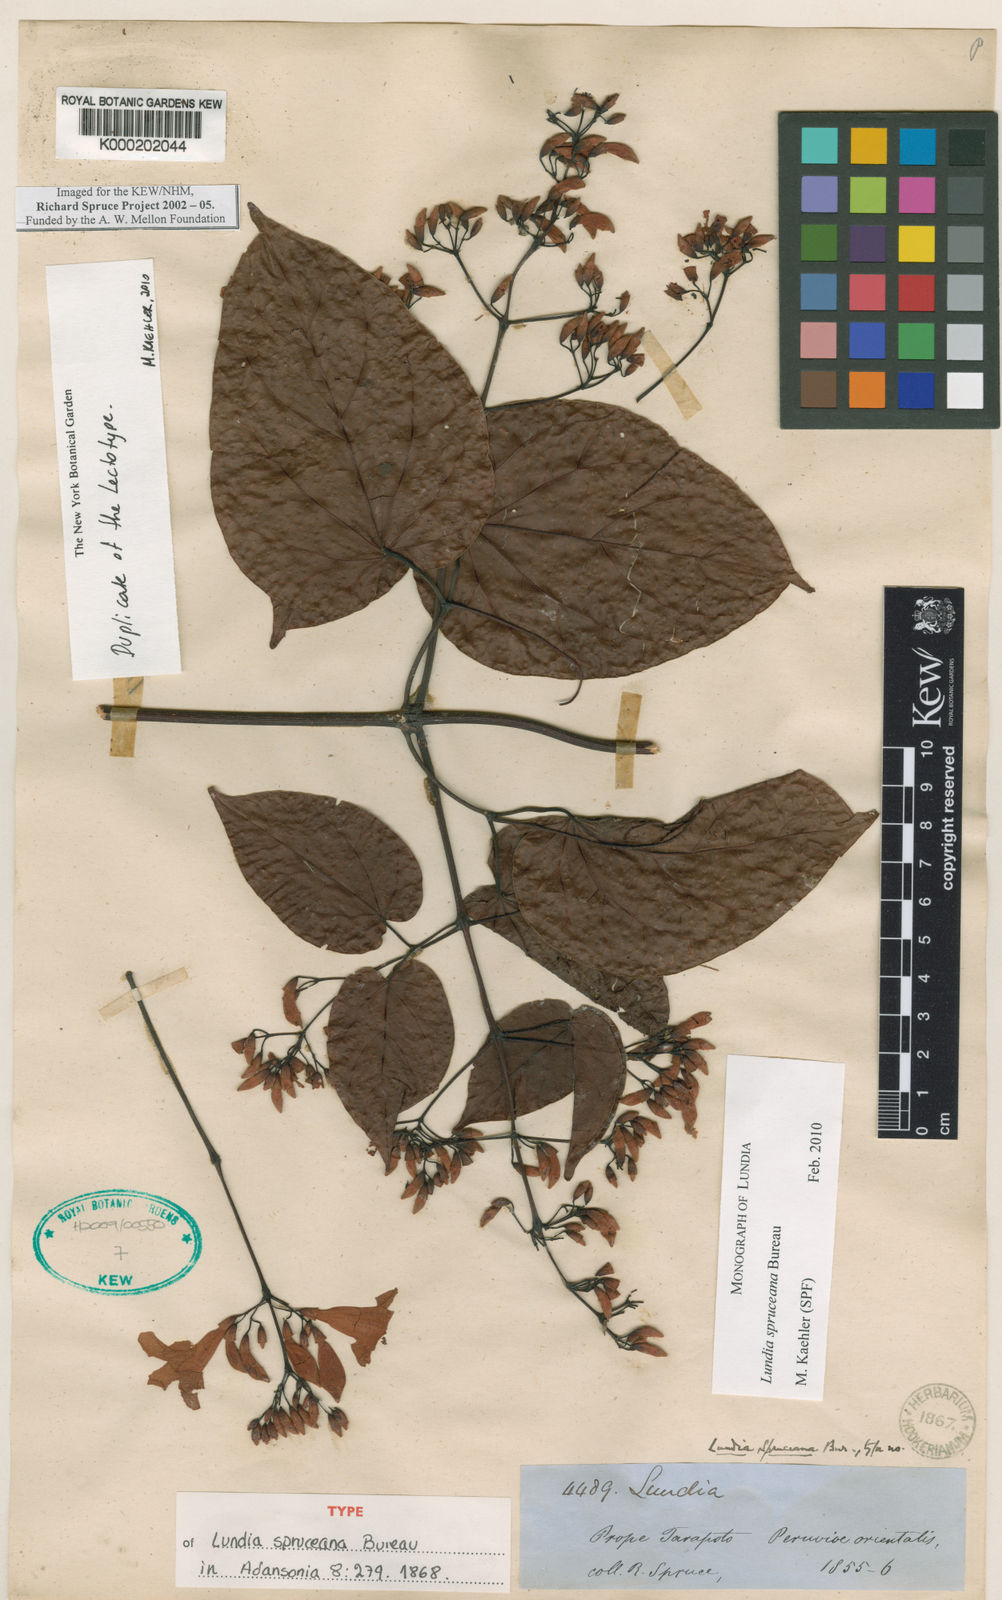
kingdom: Plantae
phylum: Tracheophyta
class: Magnoliopsida
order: Lamiales
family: Bignoniaceae
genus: Lundia
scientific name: Lundia spruceana
